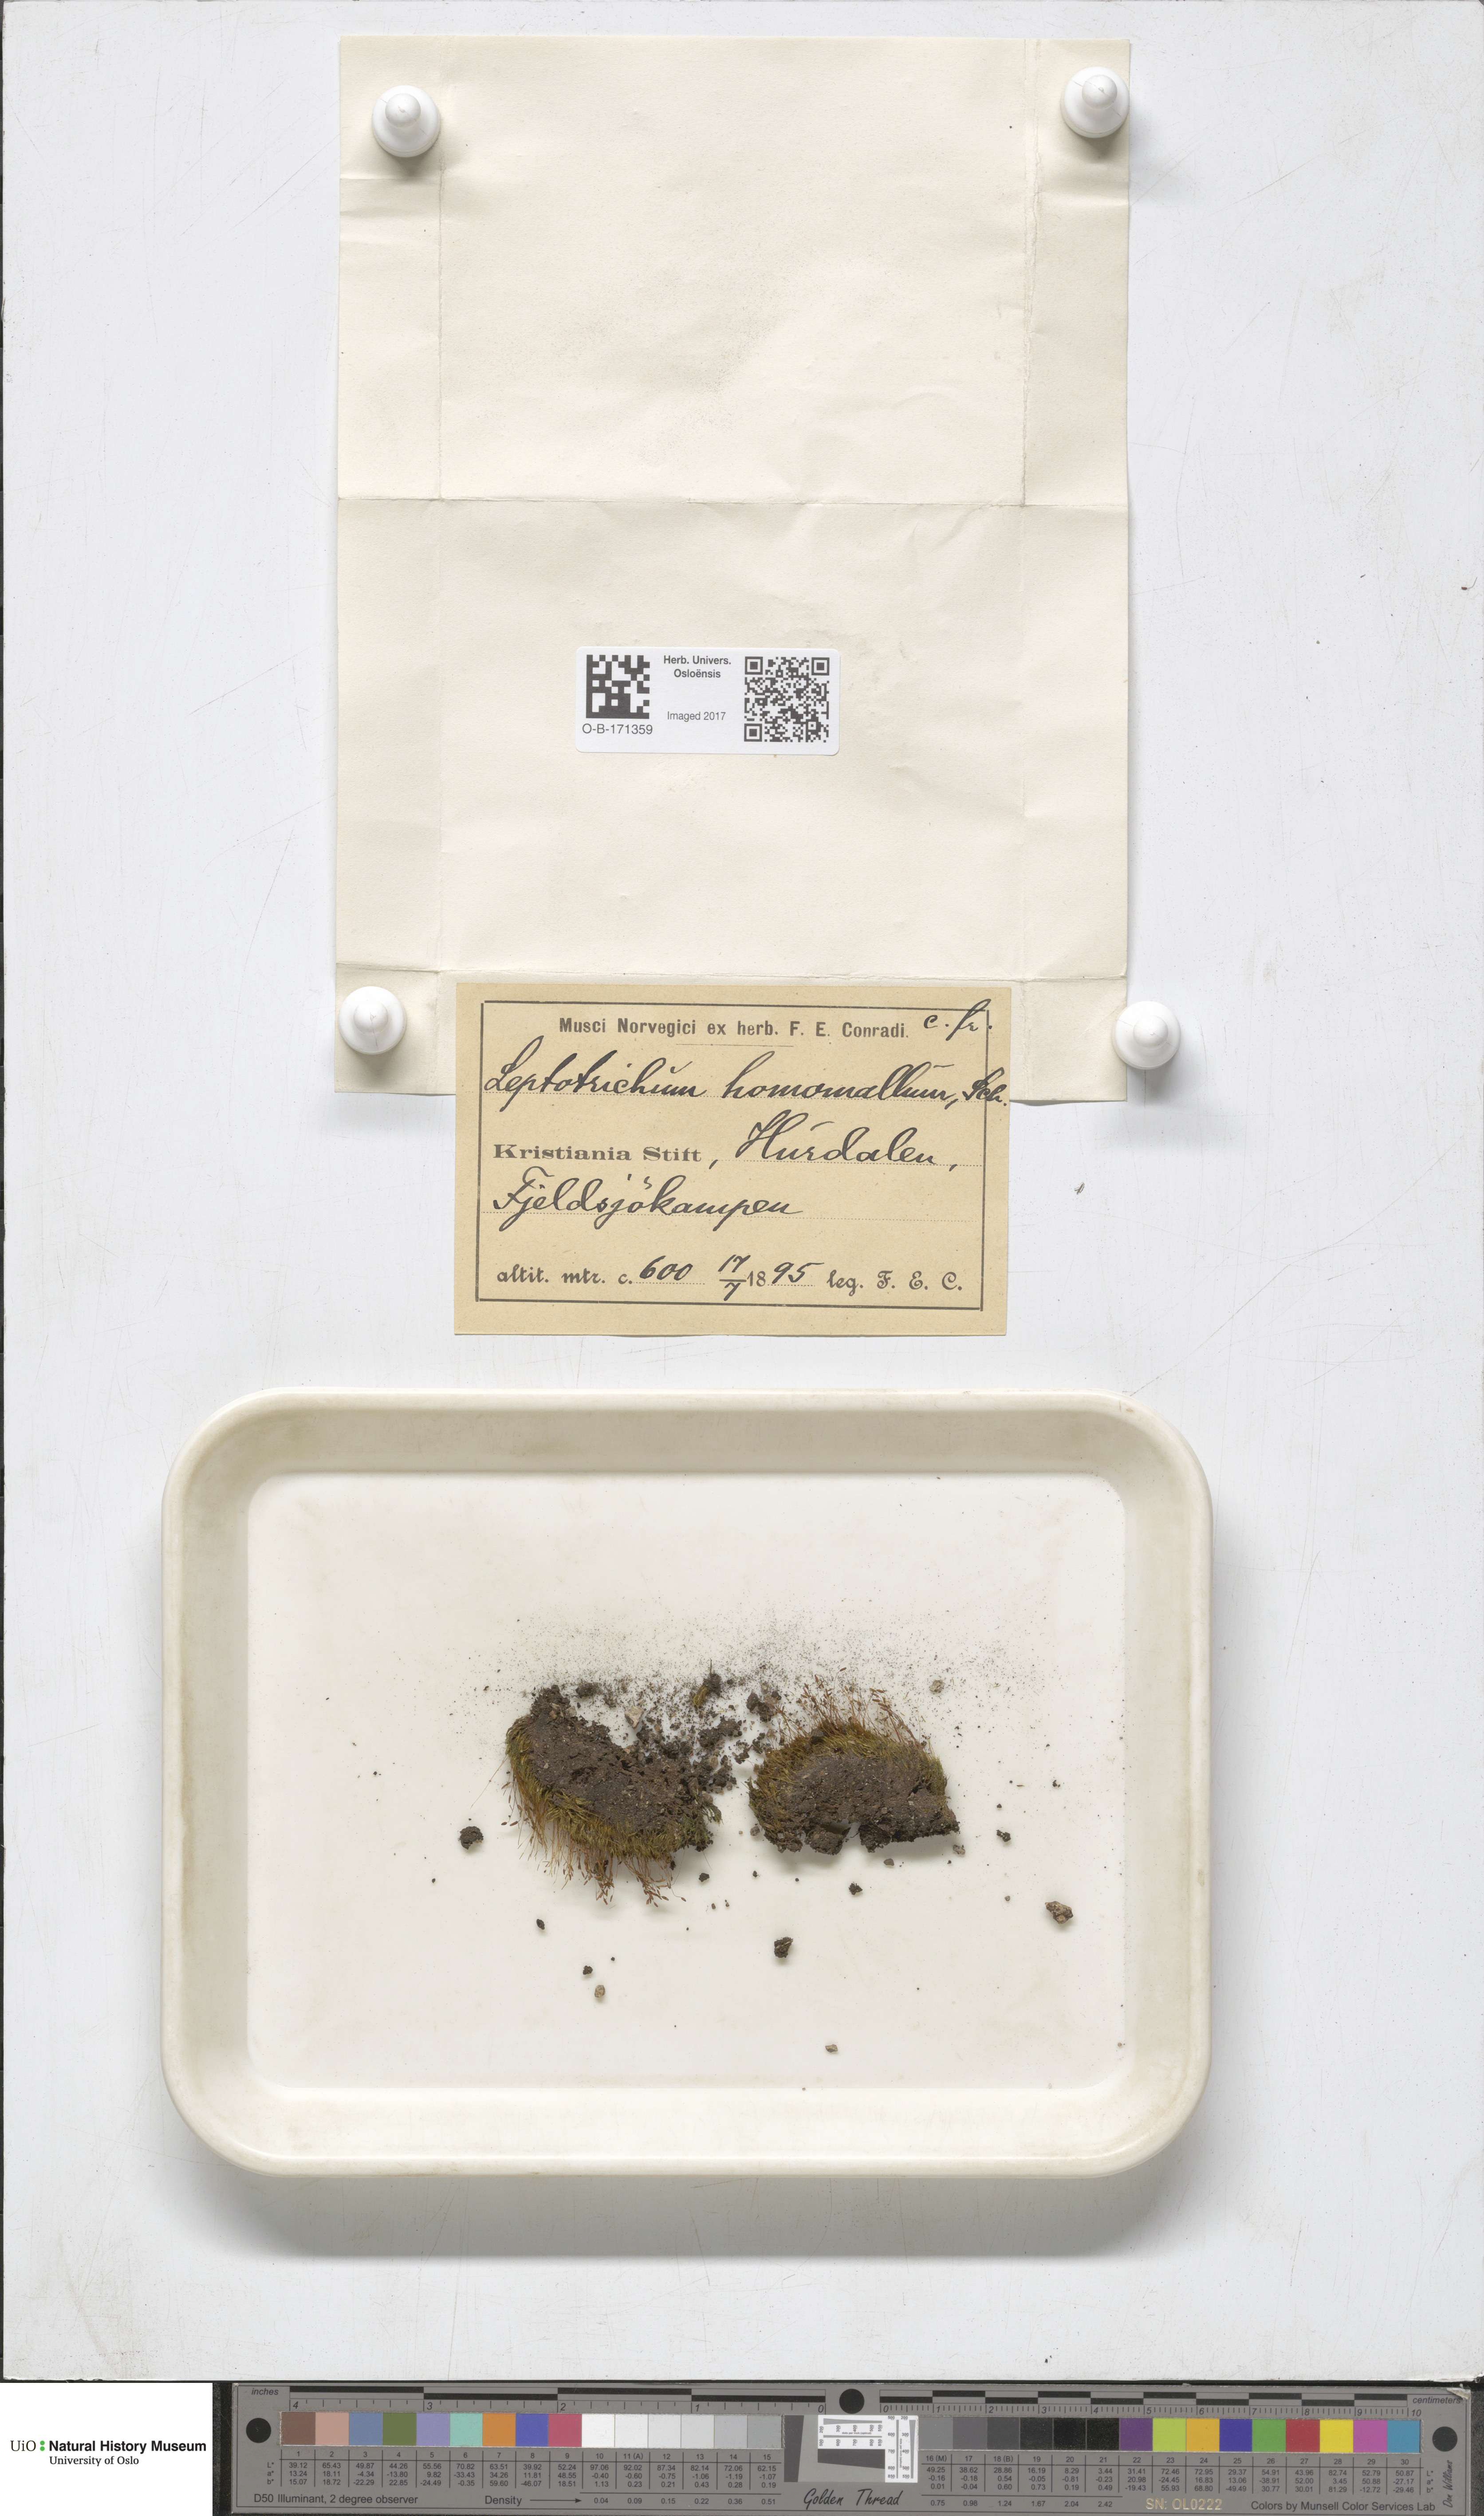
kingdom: Plantae
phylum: Bryophyta
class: Bryopsida
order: Dicranales
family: Ditrichaceae
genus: Ditrichum
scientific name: Ditrichum heteromallum
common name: Curve-leaved ditrichum
